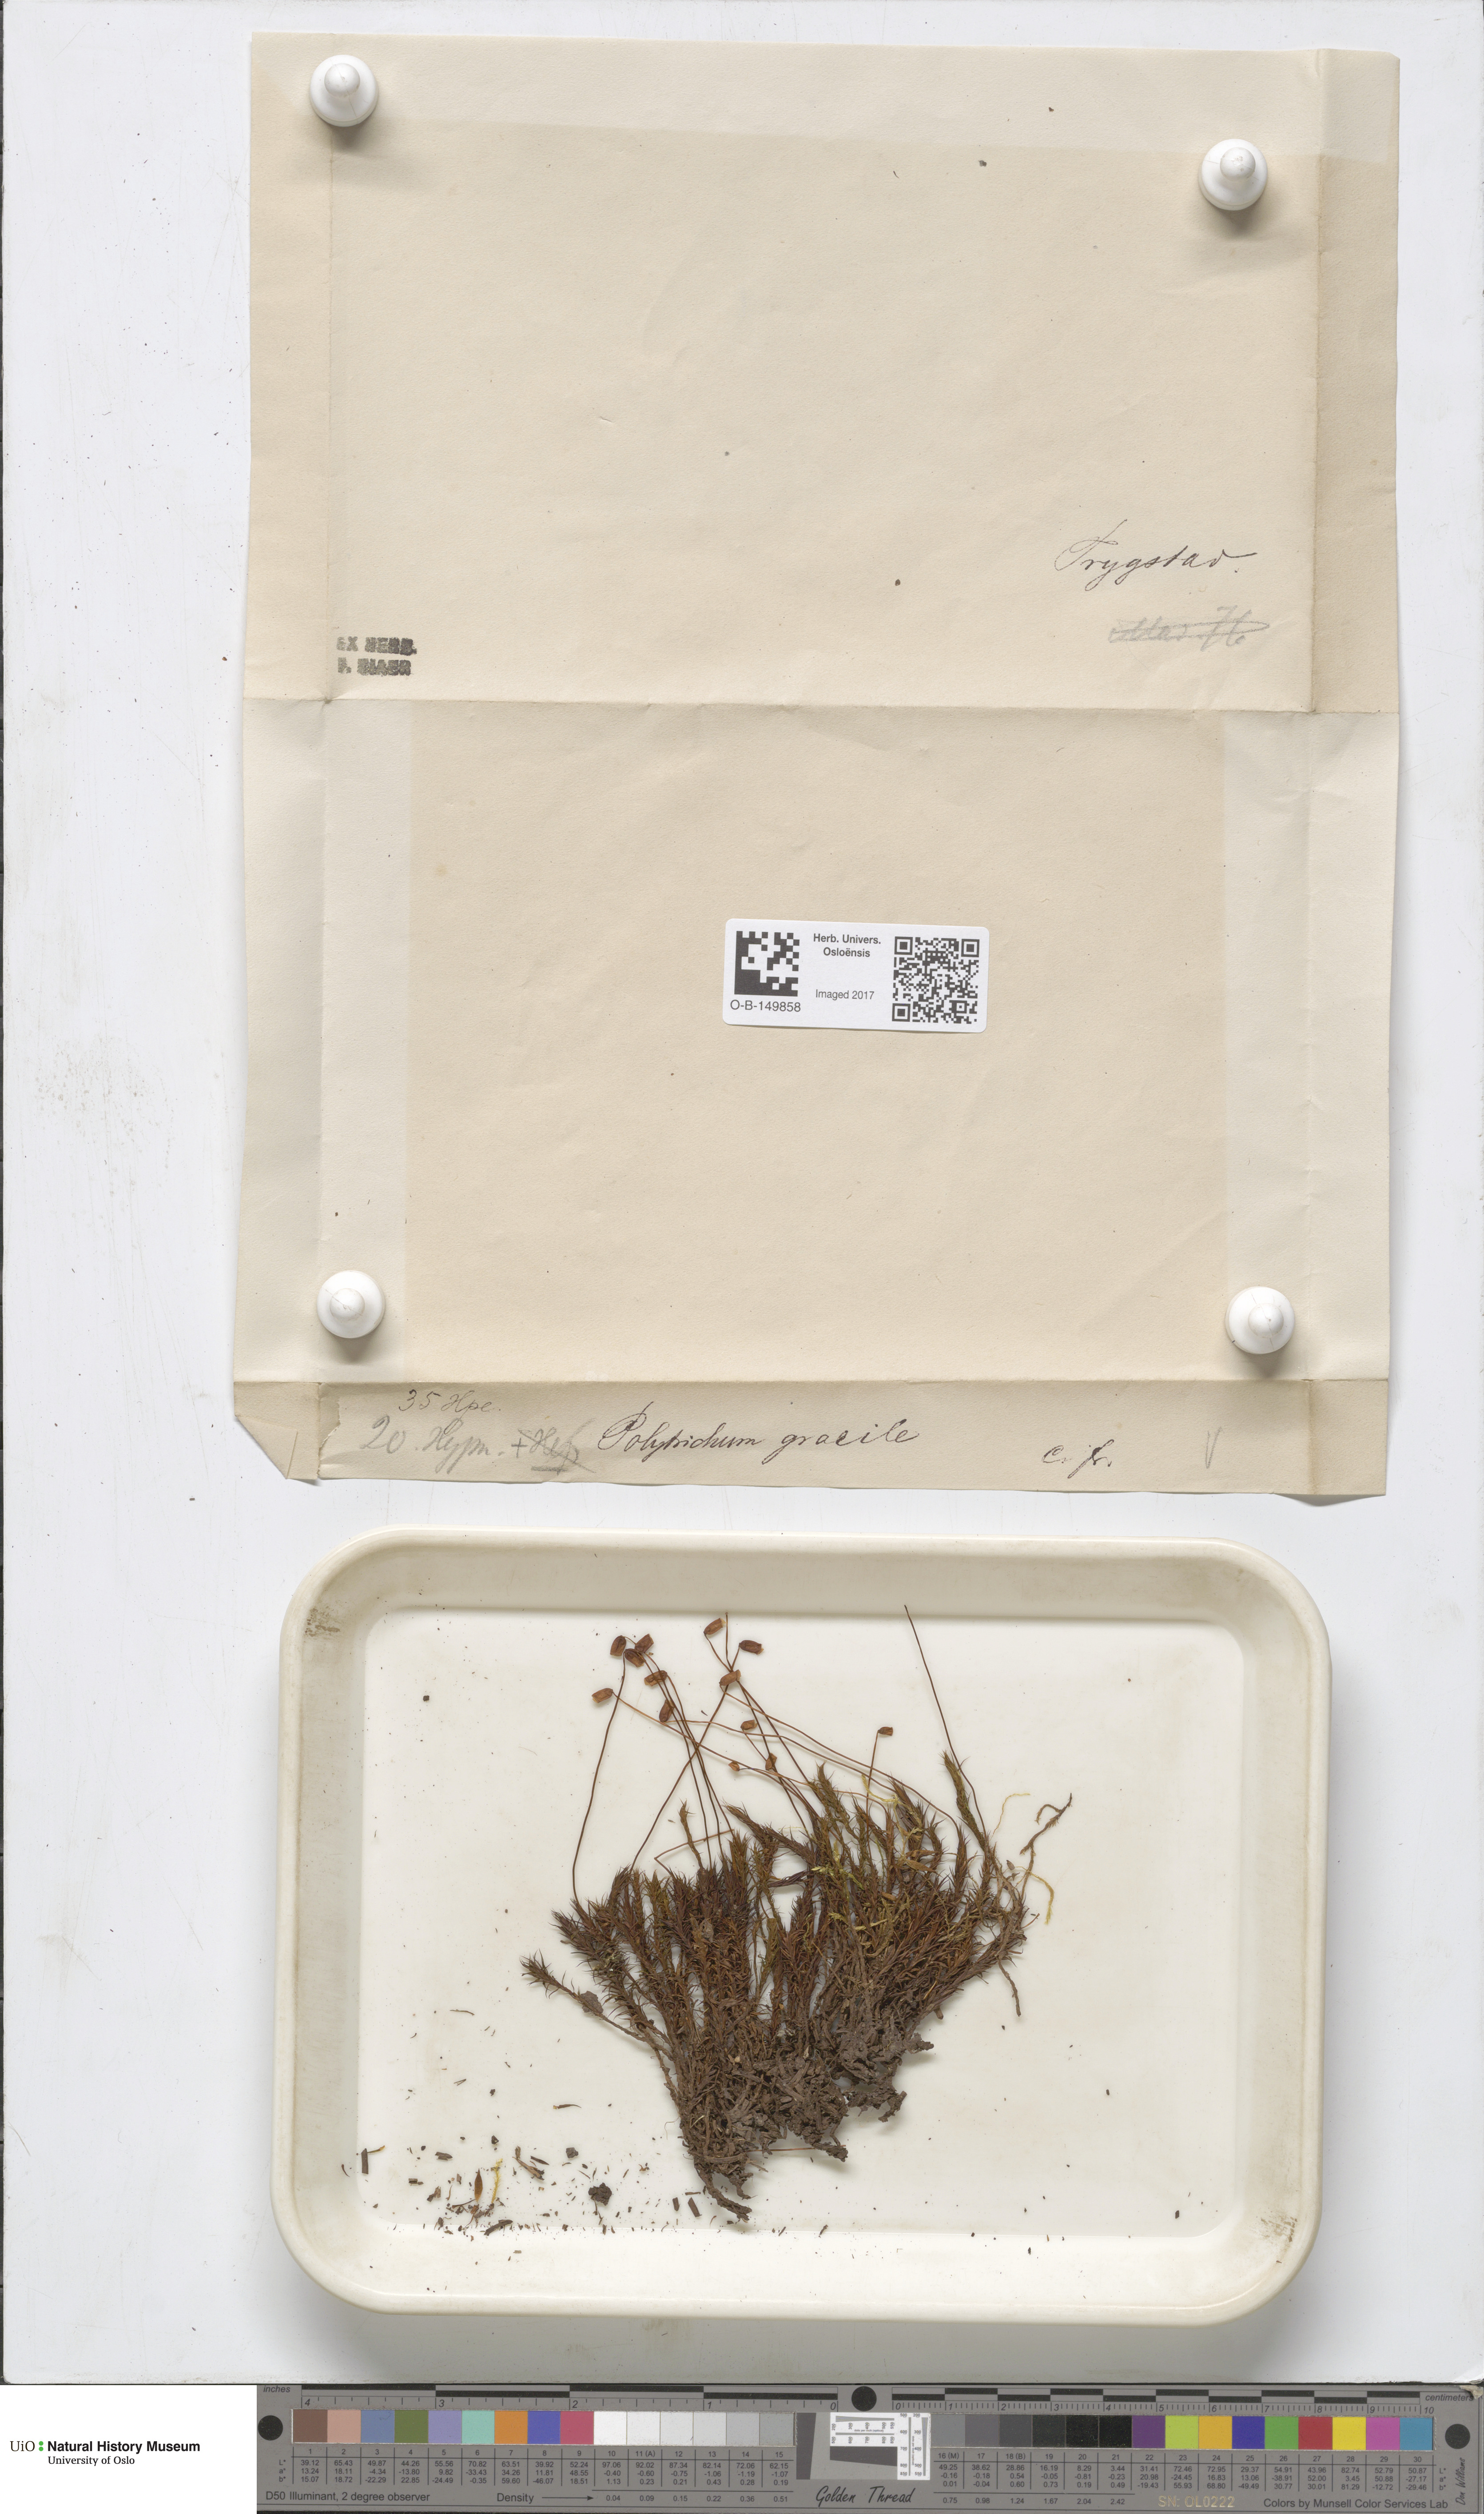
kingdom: Plantae
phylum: Bryophyta
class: Polytrichopsida
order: Polytrichales
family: Polytrichaceae
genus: Polytrichum
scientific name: Polytrichum longisetum
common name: Long-stalked haircap moss
